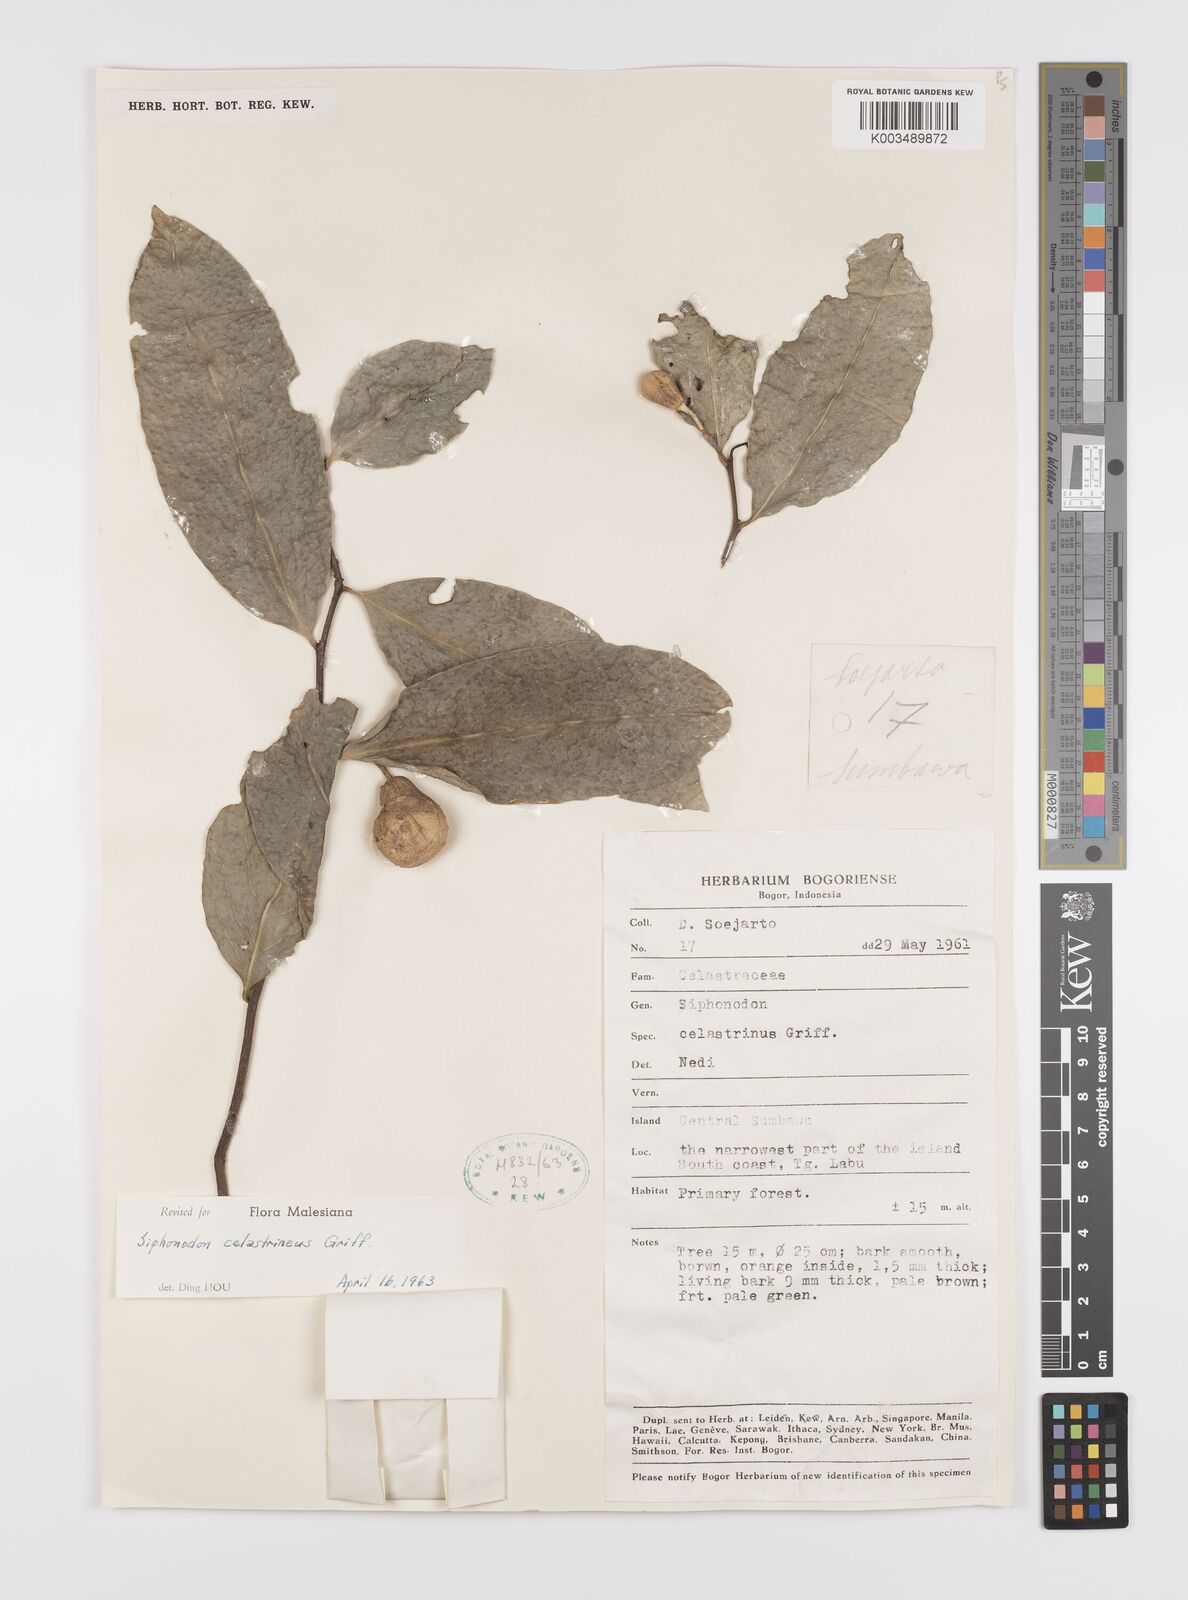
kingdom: Plantae
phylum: Tracheophyta
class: Magnoliopsida
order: Celastrales
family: Celastraceae
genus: Siphonodon
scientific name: Siphonodon celastrineus
